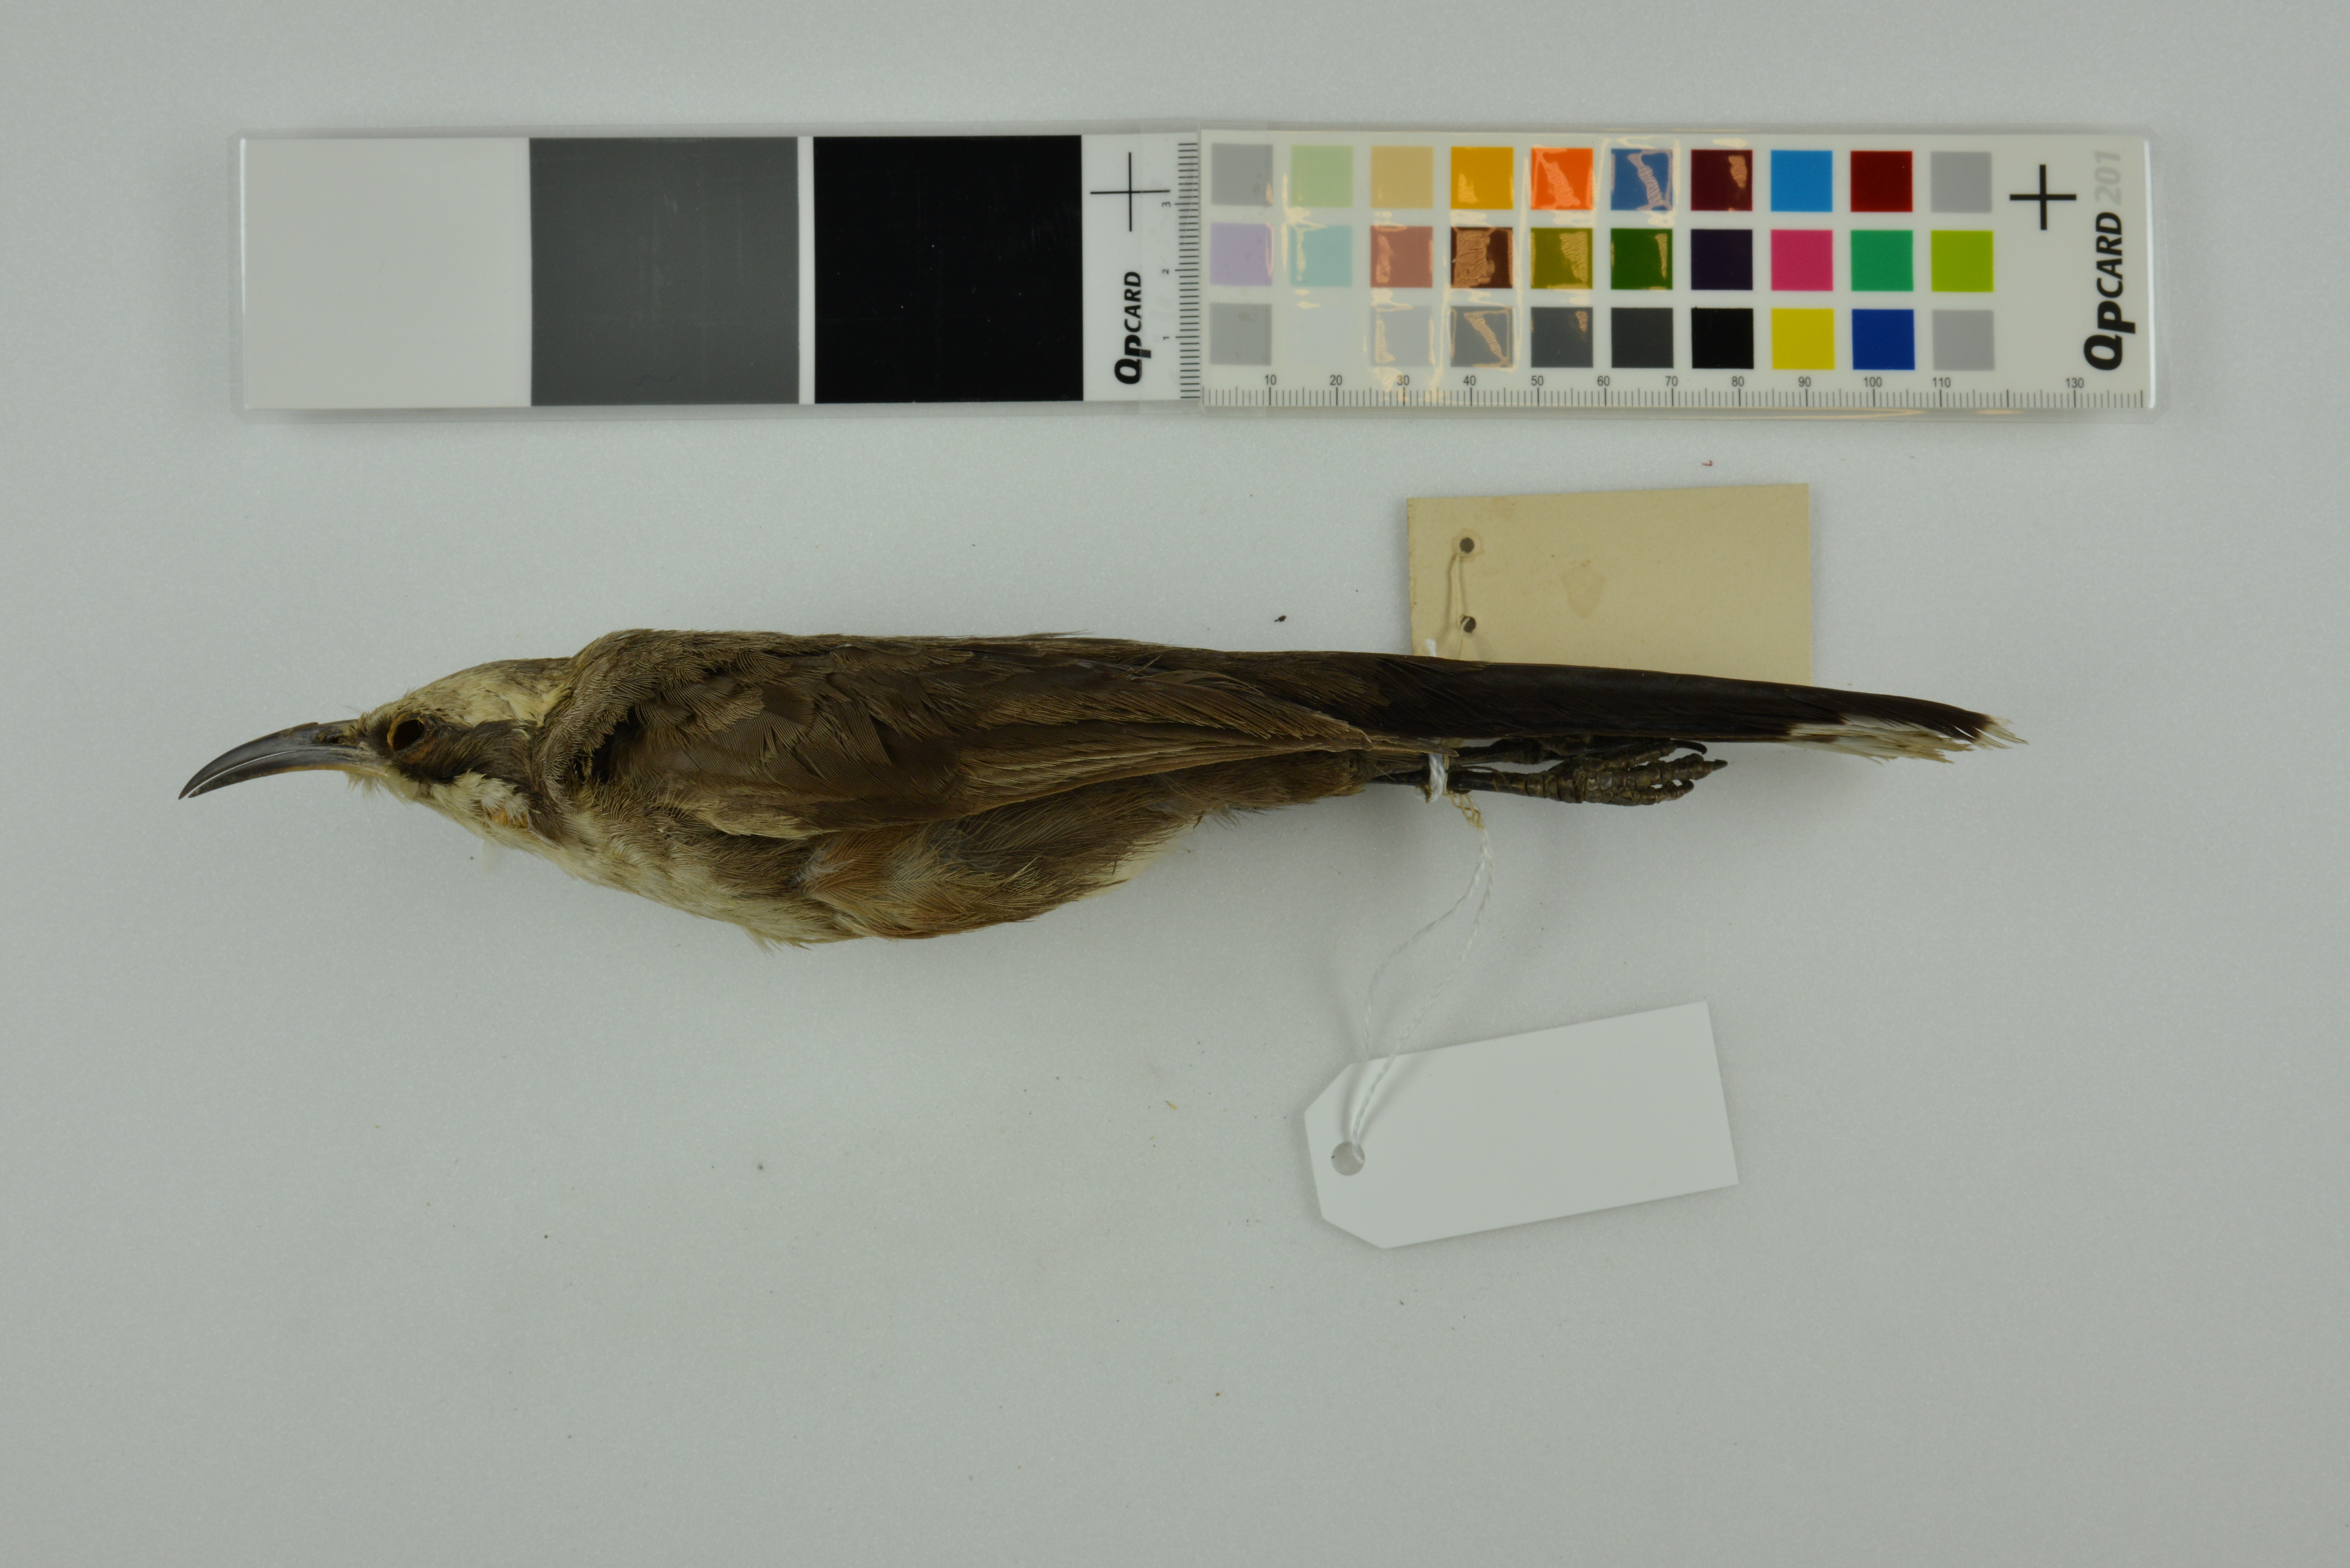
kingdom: Animalia
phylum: Chordata
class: Aves
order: Passeriformes
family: Pomatostomidae
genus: Pomatostomus
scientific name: Pomatostomus temporalis
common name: Grey-crowned babbler
